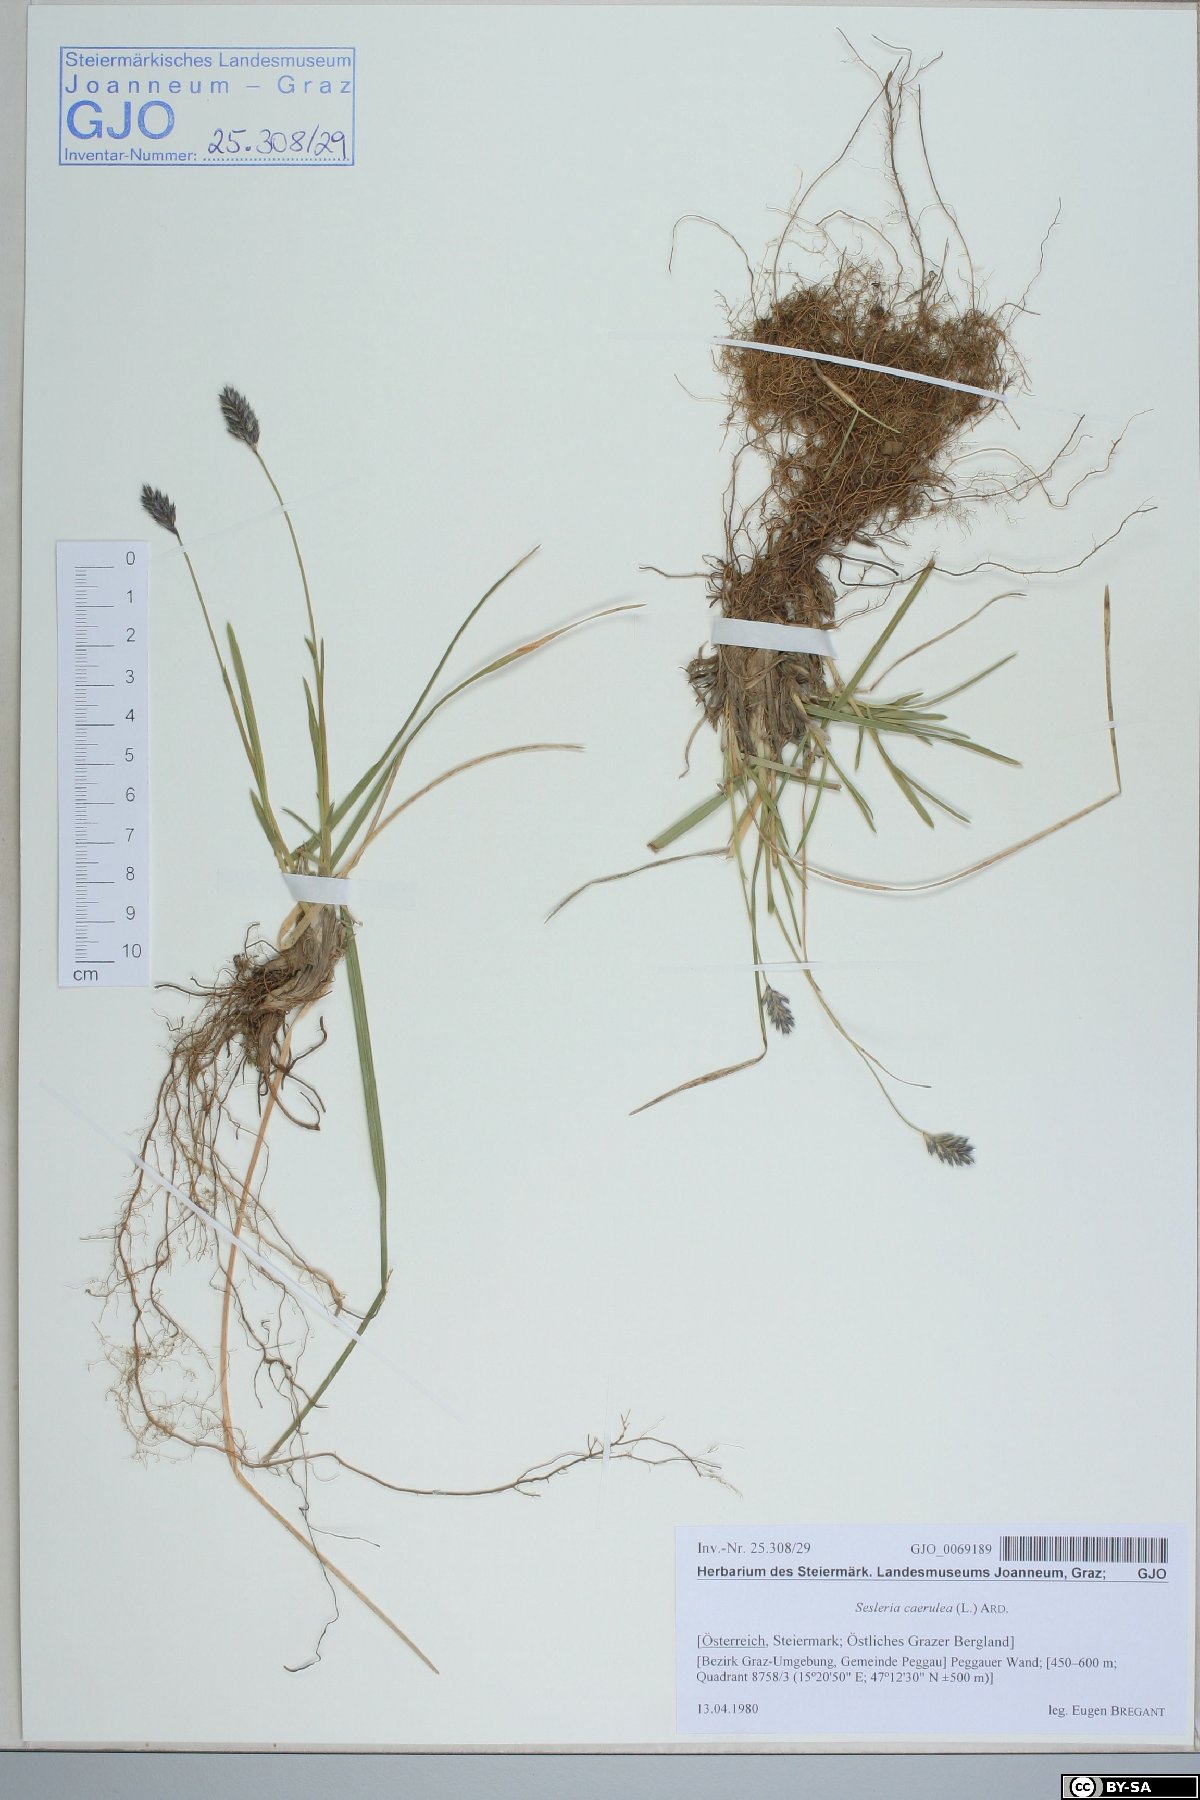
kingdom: Plantae
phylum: Tracheophyta
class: Liliopsida
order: Poales
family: Poaceae
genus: Sesleria
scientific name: Sesleria caerulea
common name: Blue moor-grass
